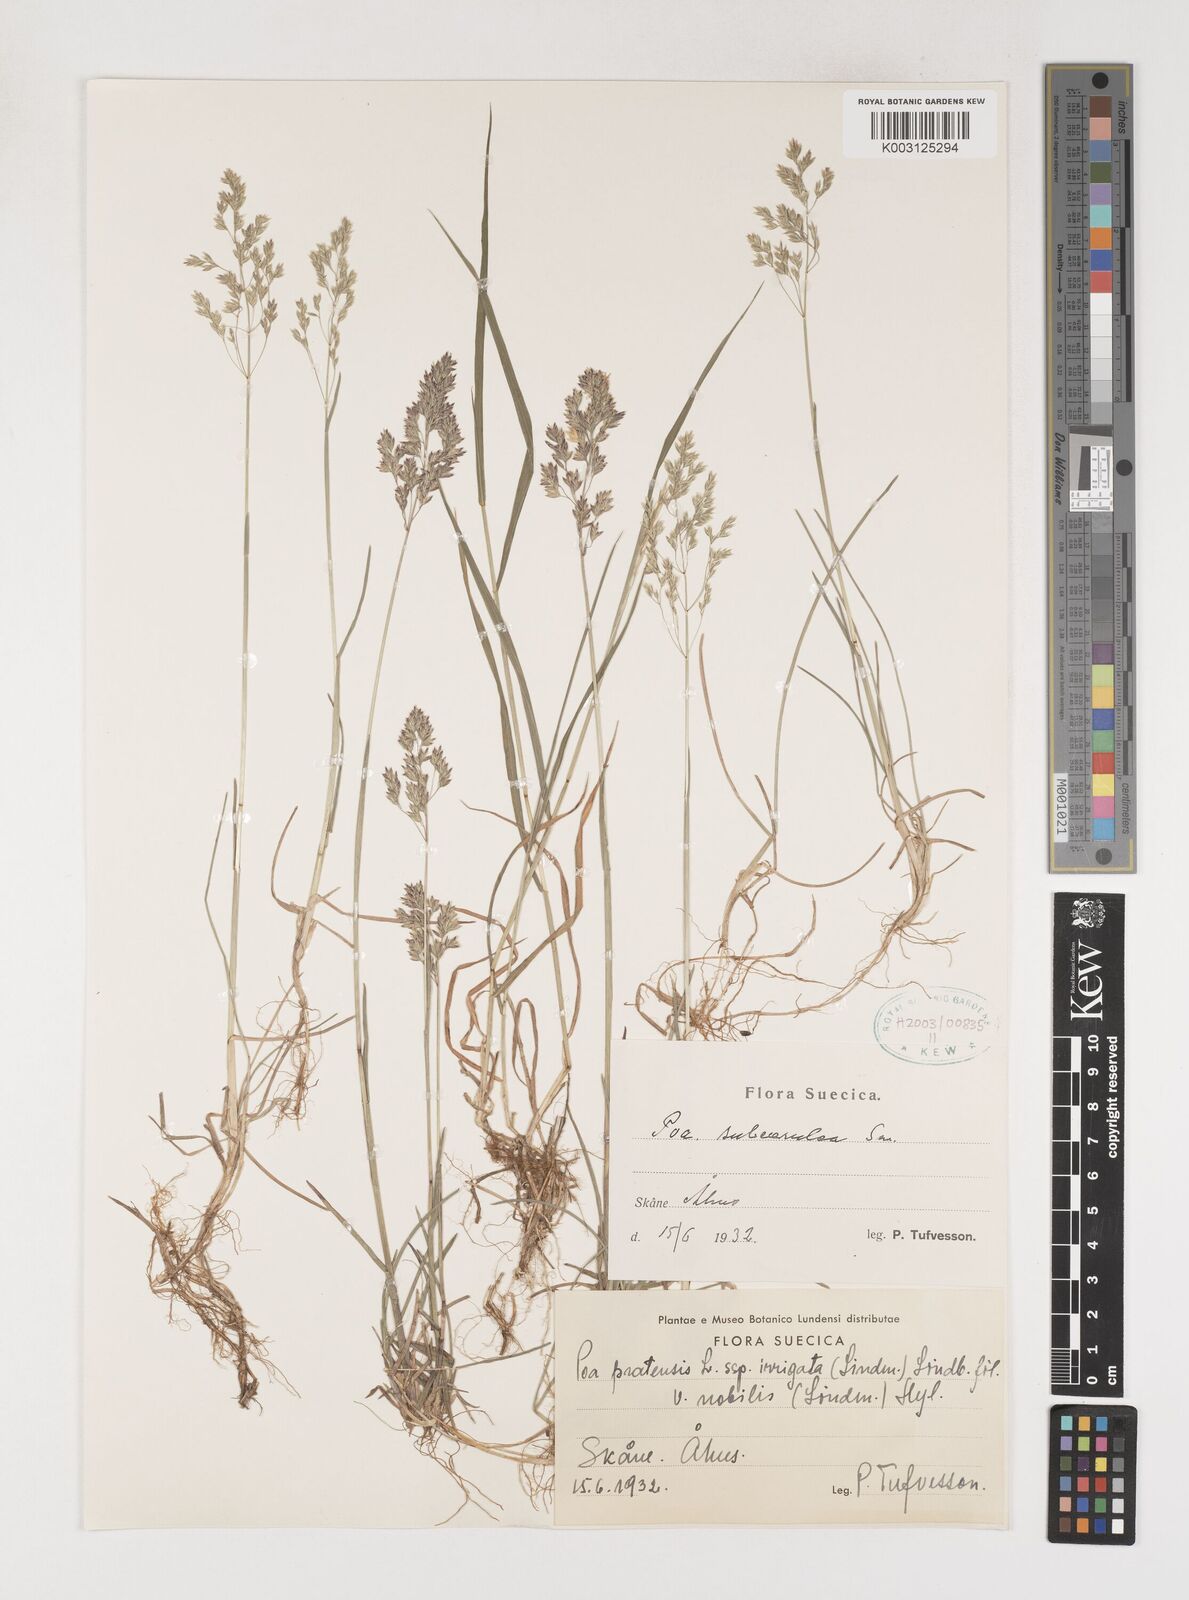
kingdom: Plantae
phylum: Tracheophyta
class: Liliopsida
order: Poales
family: Poaceae
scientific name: Poaceae
